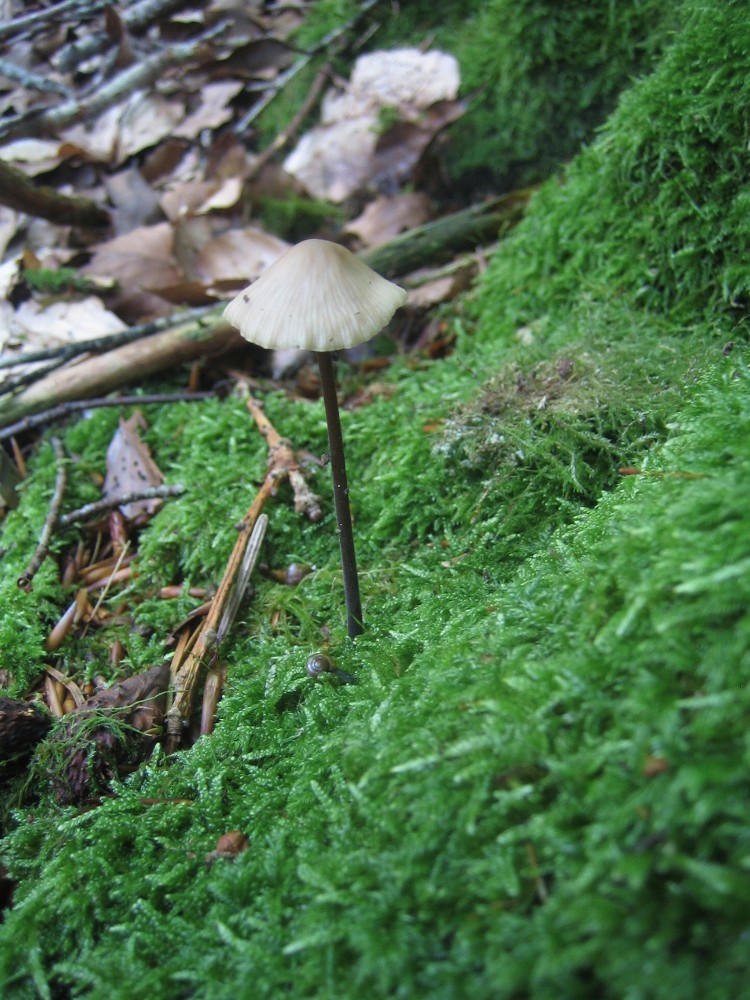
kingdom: Fungi
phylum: Basidiomycota
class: Agaricomycetes
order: Agaricales
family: Omphalotaceae
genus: Mycetinis
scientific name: Mycetinis alliaceus
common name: stor løghat
